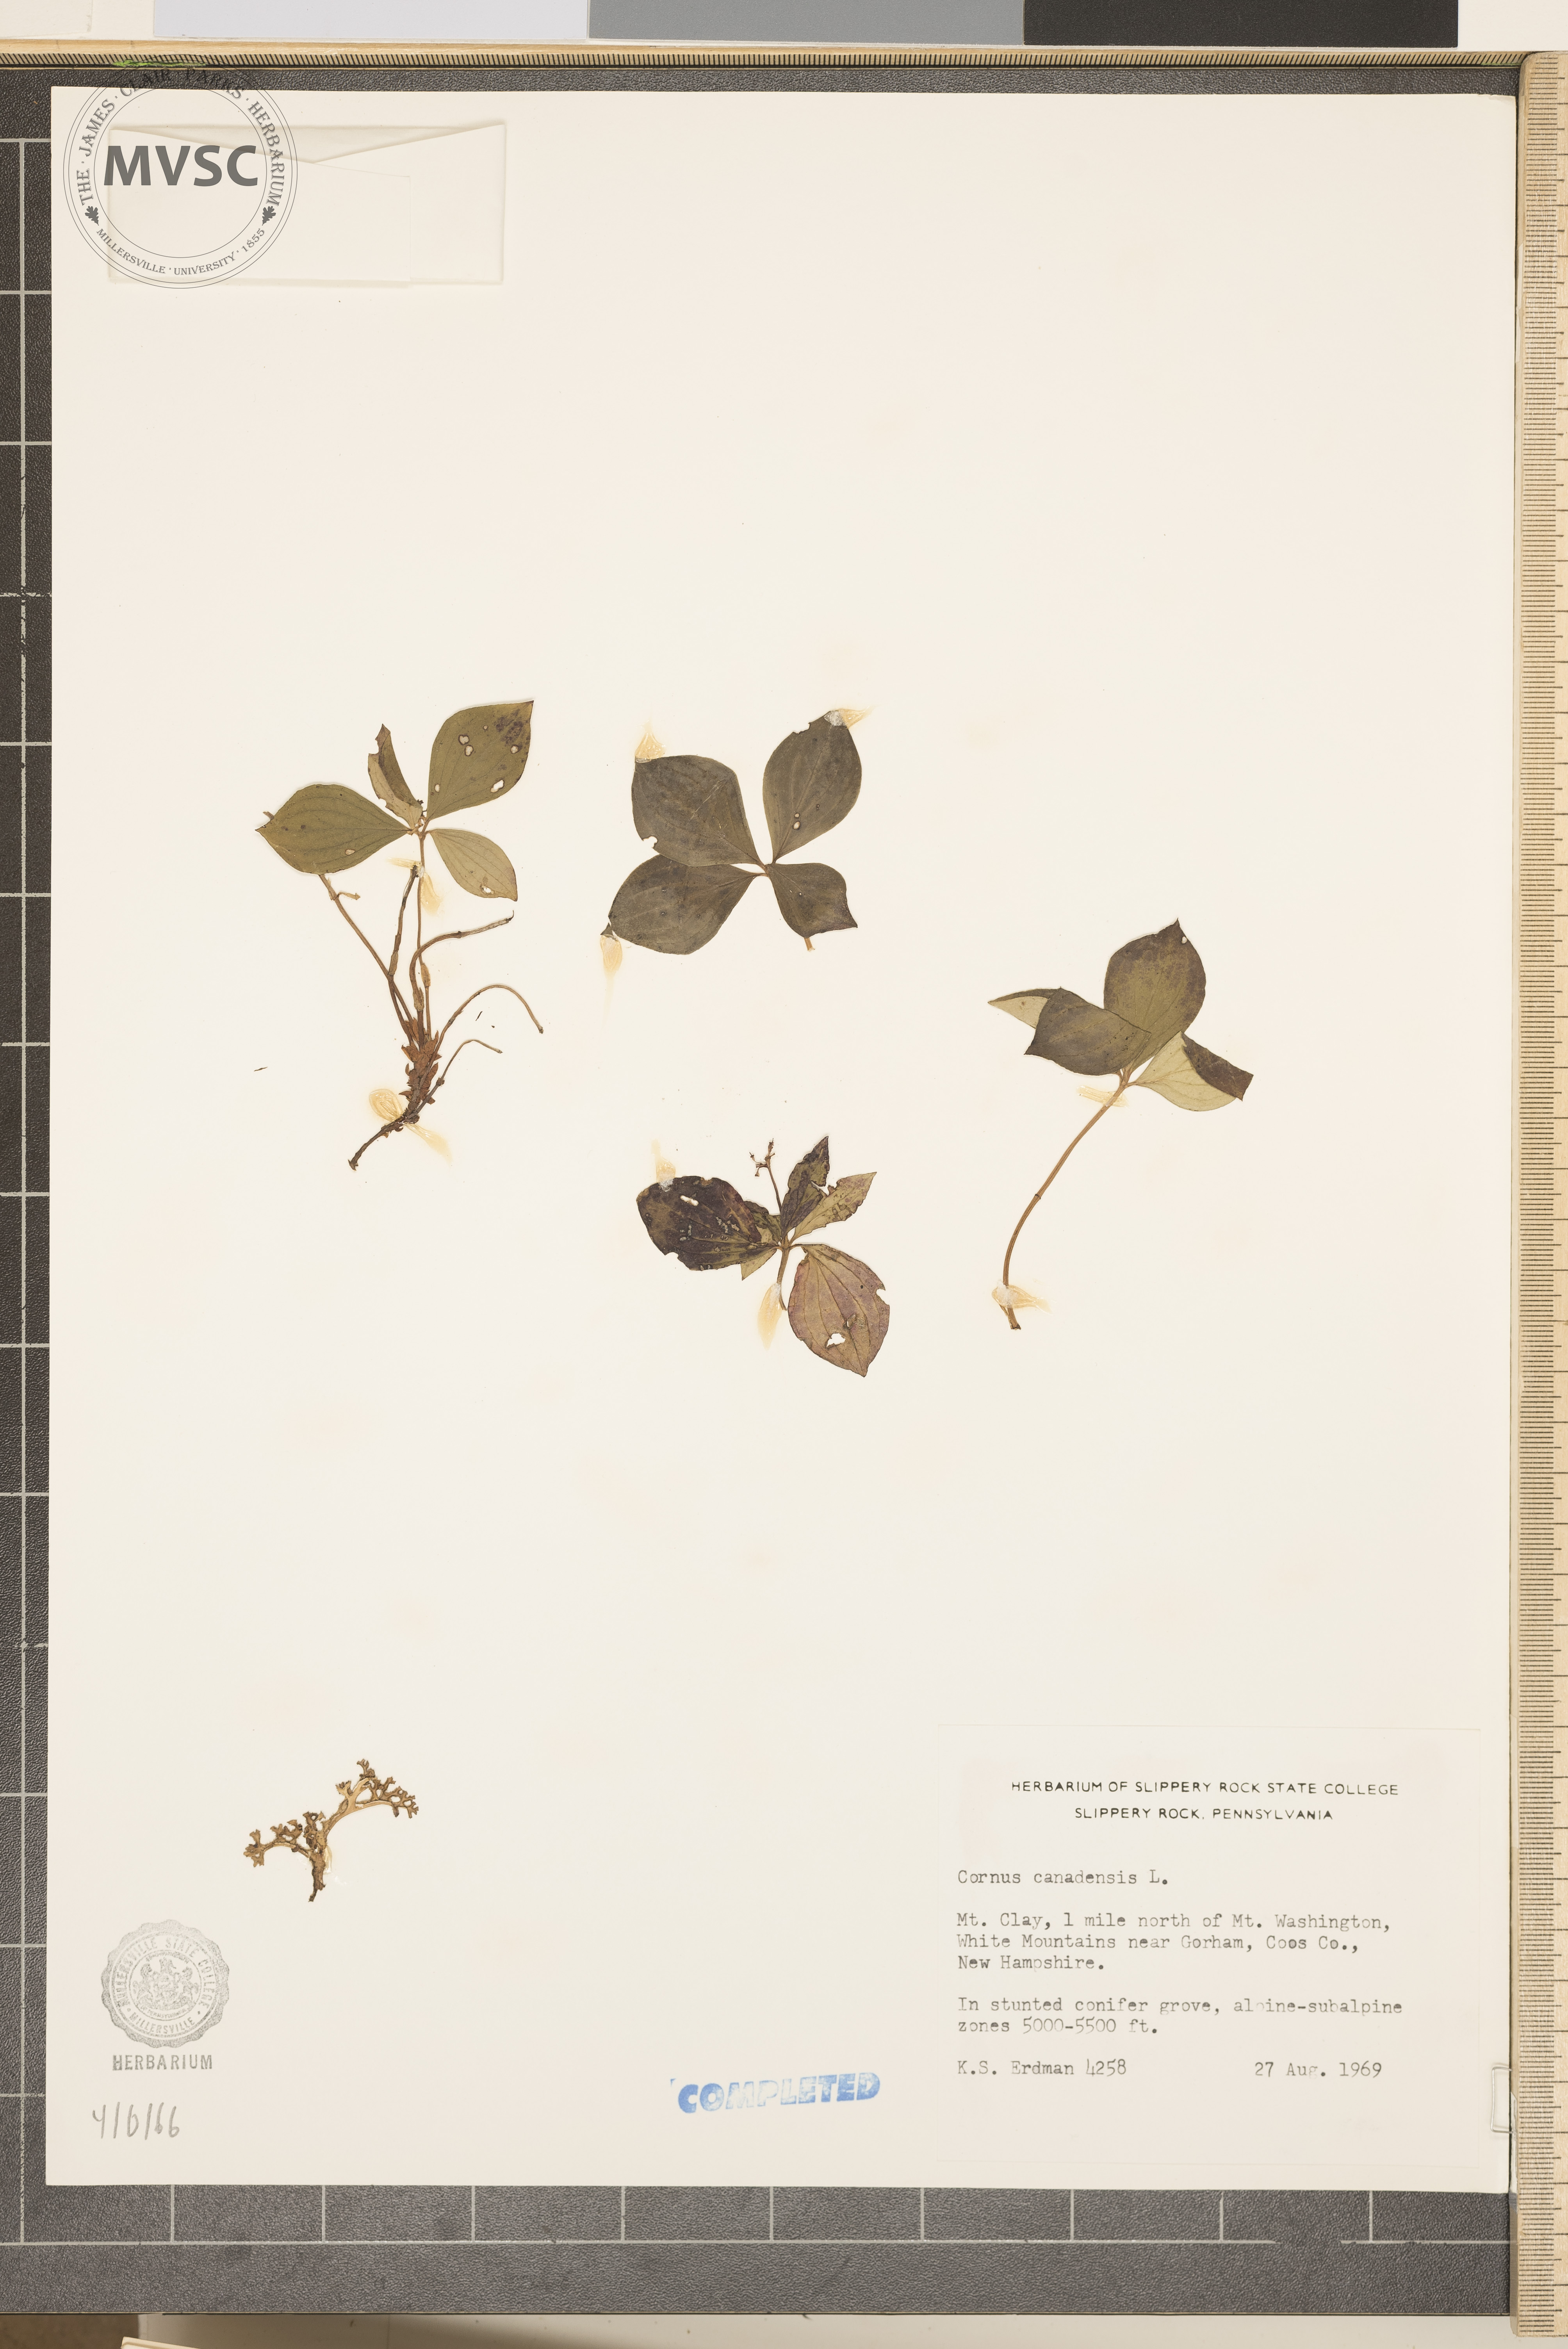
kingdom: Plantae
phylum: Tracheophyta
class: Magnoliopsida
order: Cornales
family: Cornaceae
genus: Cornus
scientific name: Cornus canadensis
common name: Bunchberry
